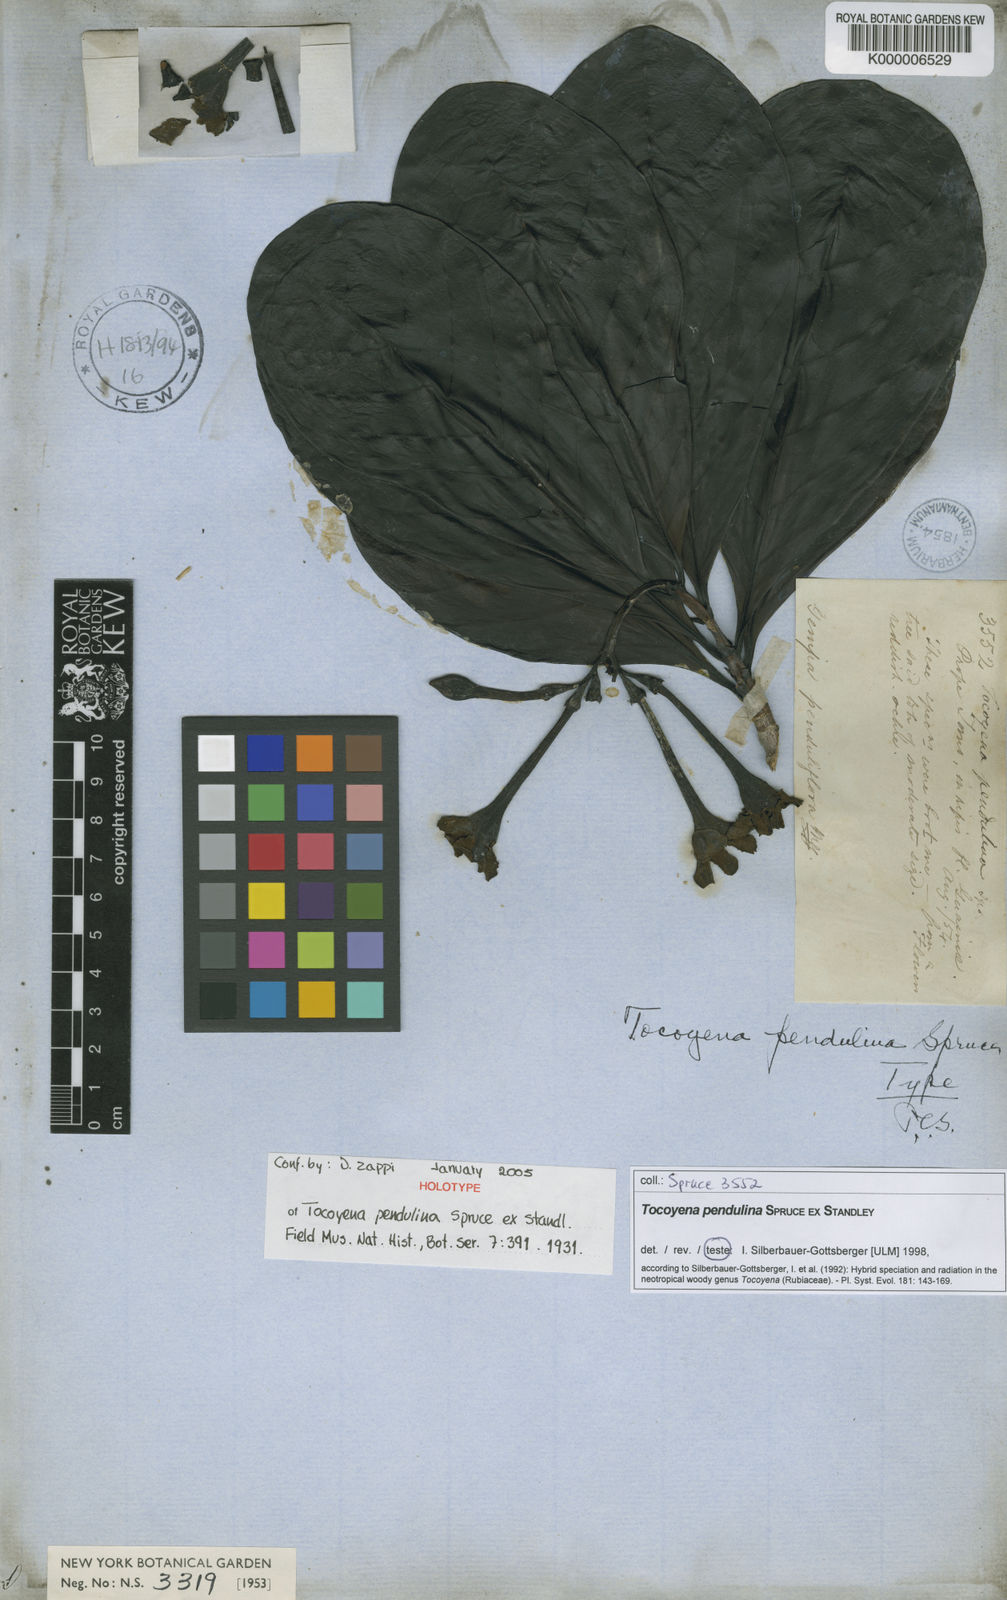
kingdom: Plantae
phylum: Tracheophyta
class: Magnoliopsida
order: Gentianales
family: Rubiaceae
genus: Tocoyena
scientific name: Tocoyena pendulina
